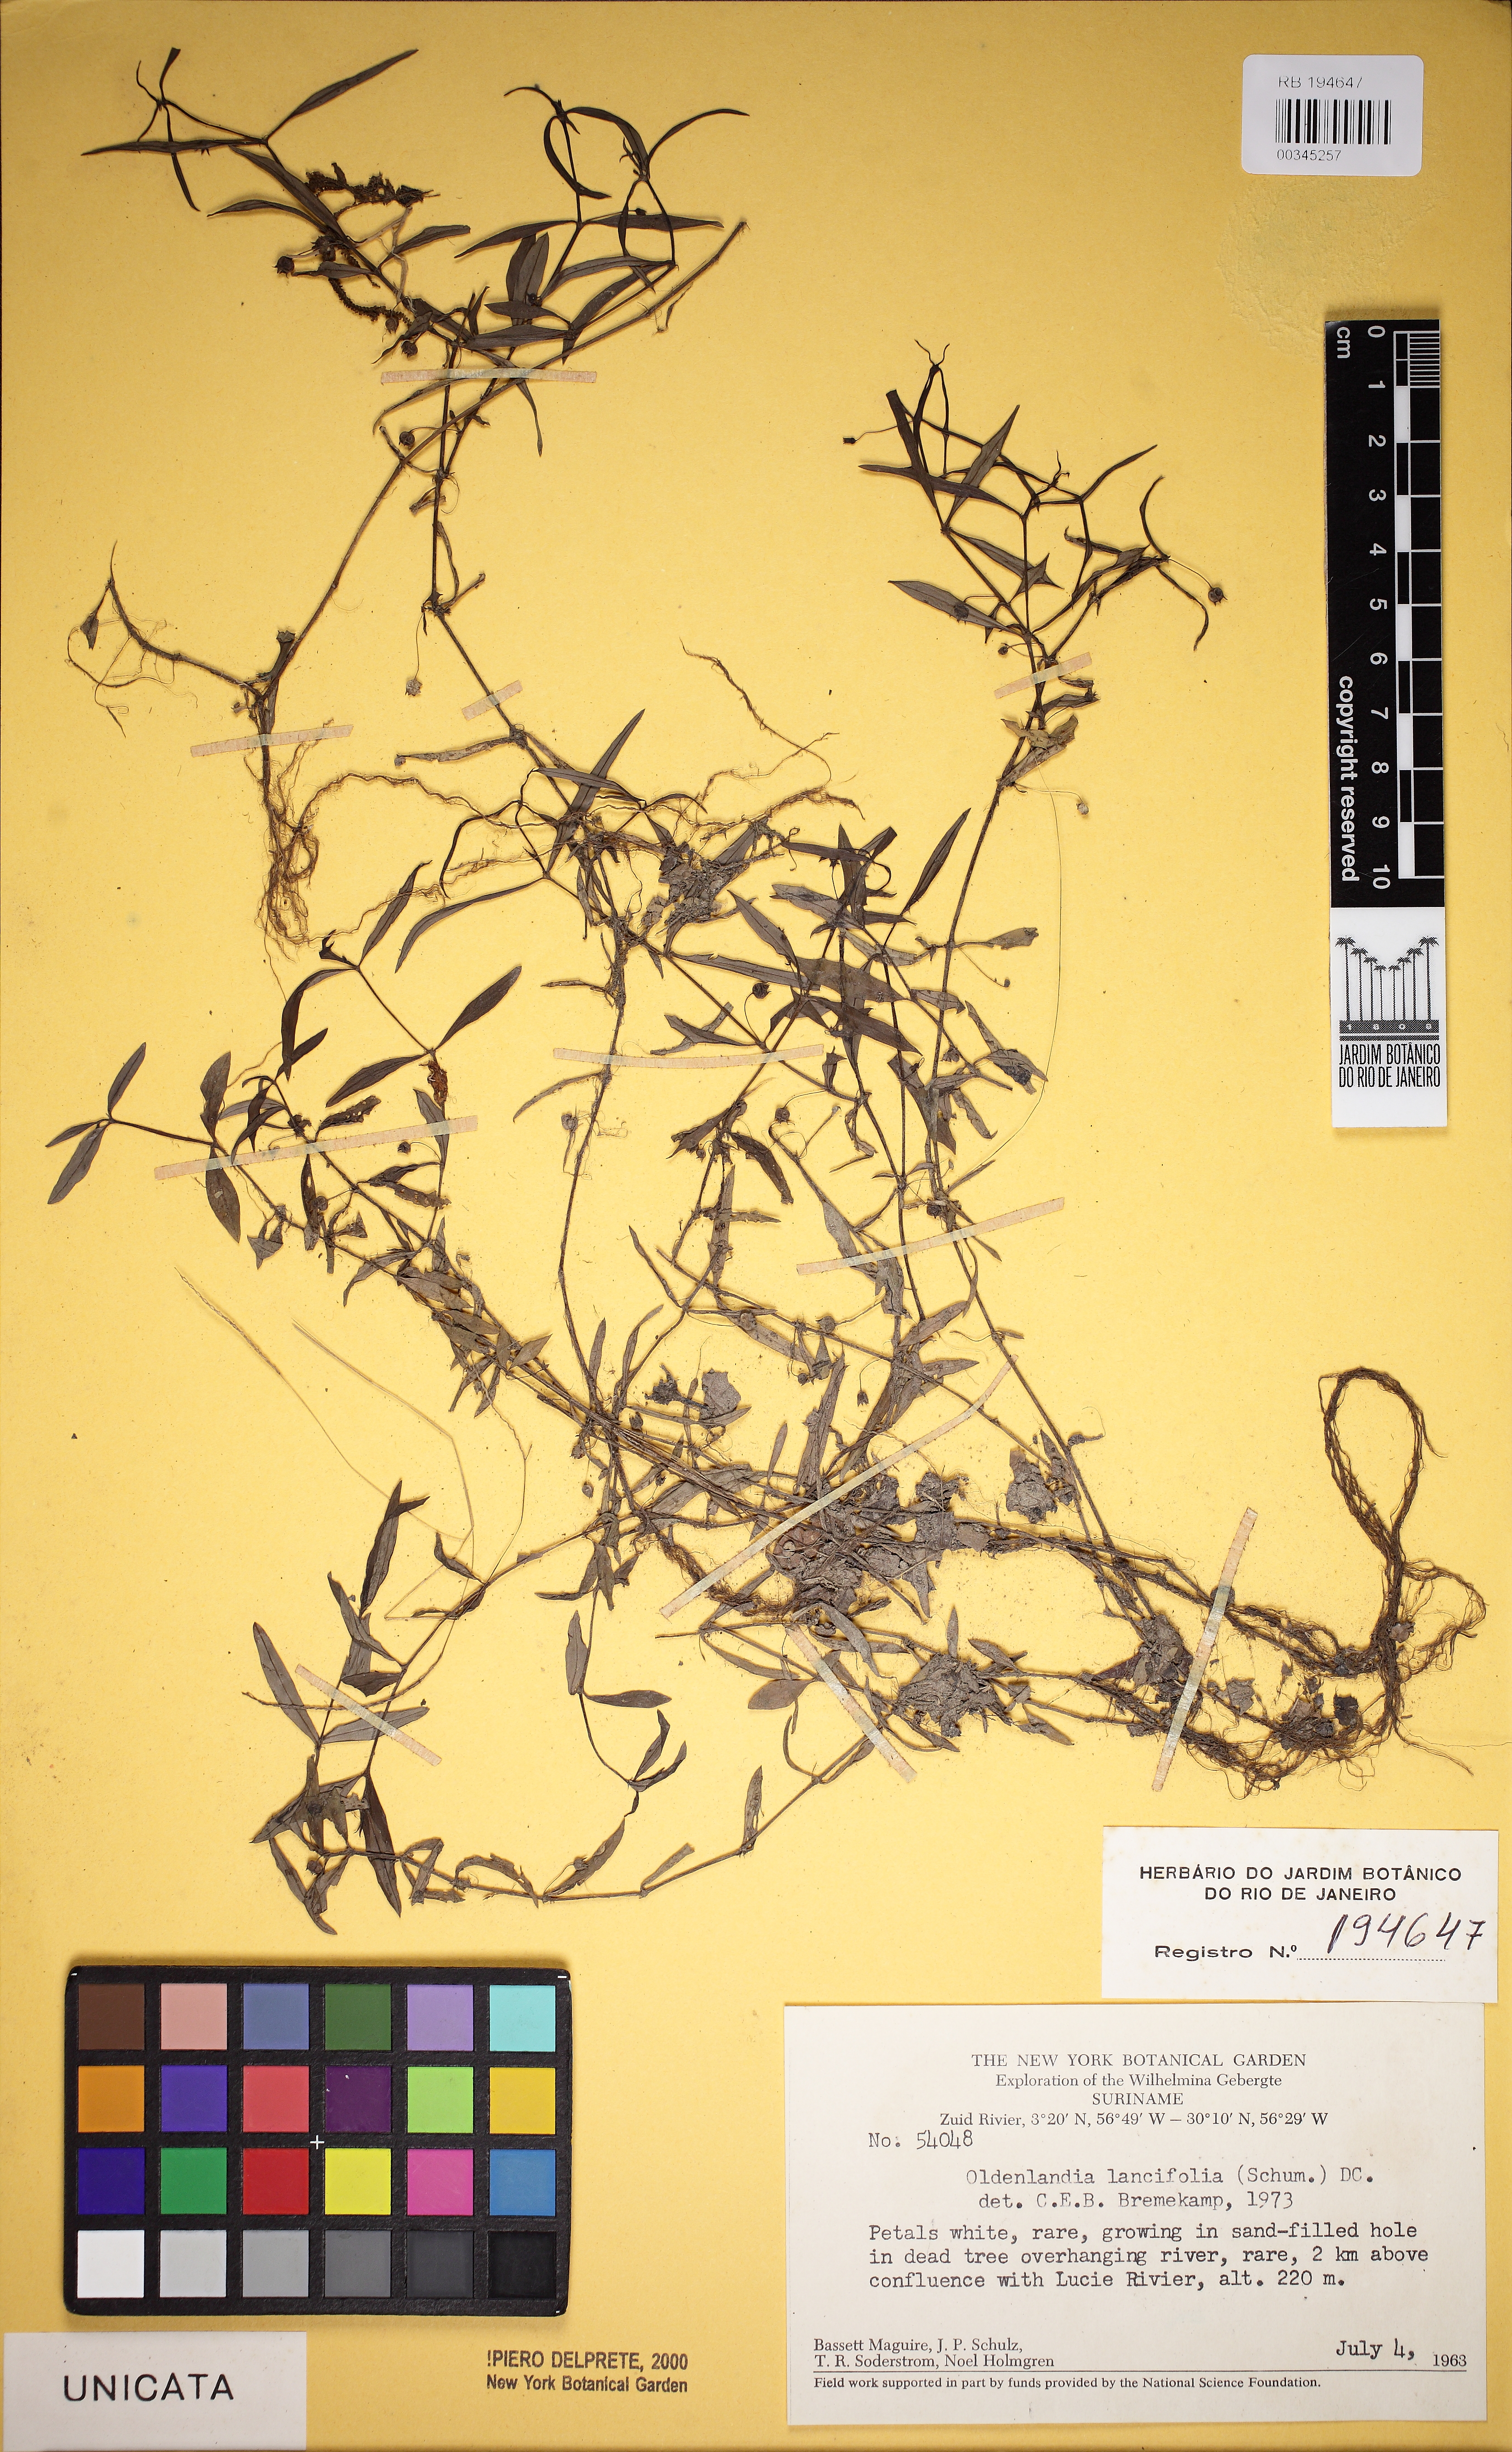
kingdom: Plantae
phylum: Tracheophyta
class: Magnoliopsida
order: Gentianales
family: Rubiaceae
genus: Oldenlandia
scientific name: Oldenlandia lancifolia
